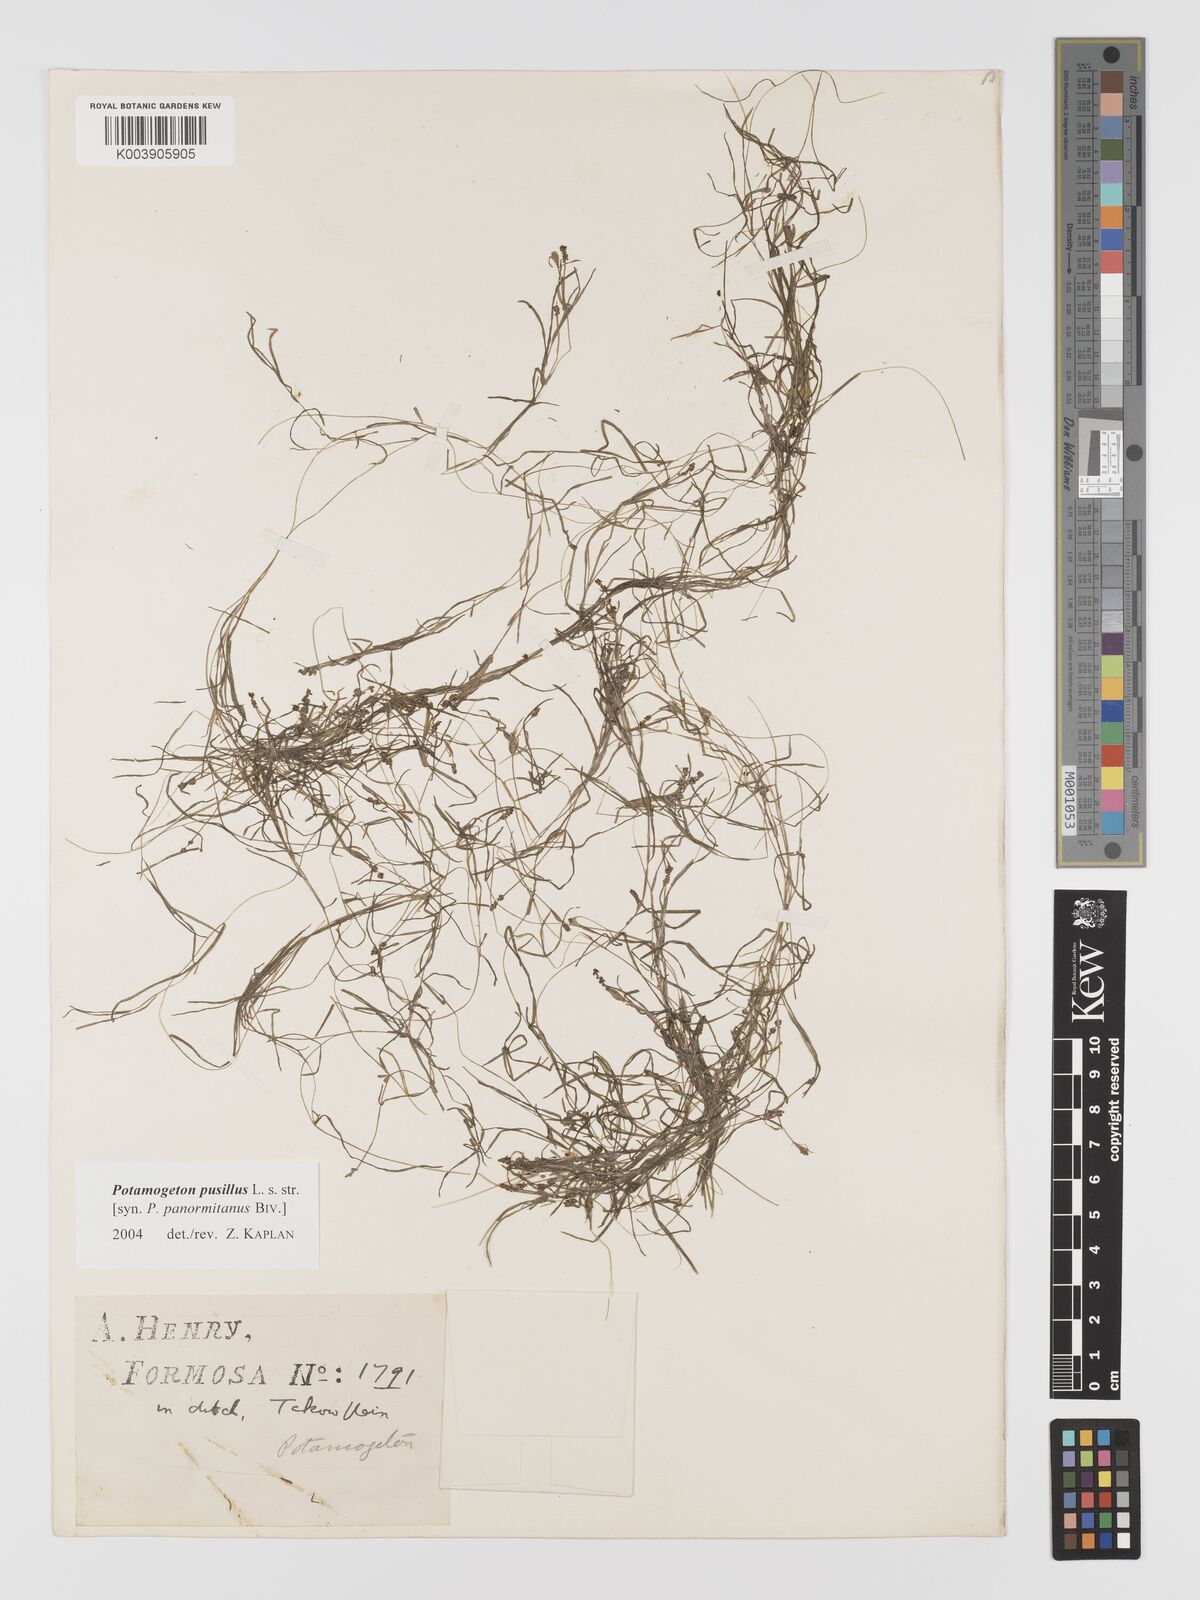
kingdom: Plantae
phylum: Tracheophyta
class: Liliopsida
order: Alismatales
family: Potamogetonaceae
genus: Potamogeton
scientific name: Potamogeton pusillus
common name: Lesser pondweed
